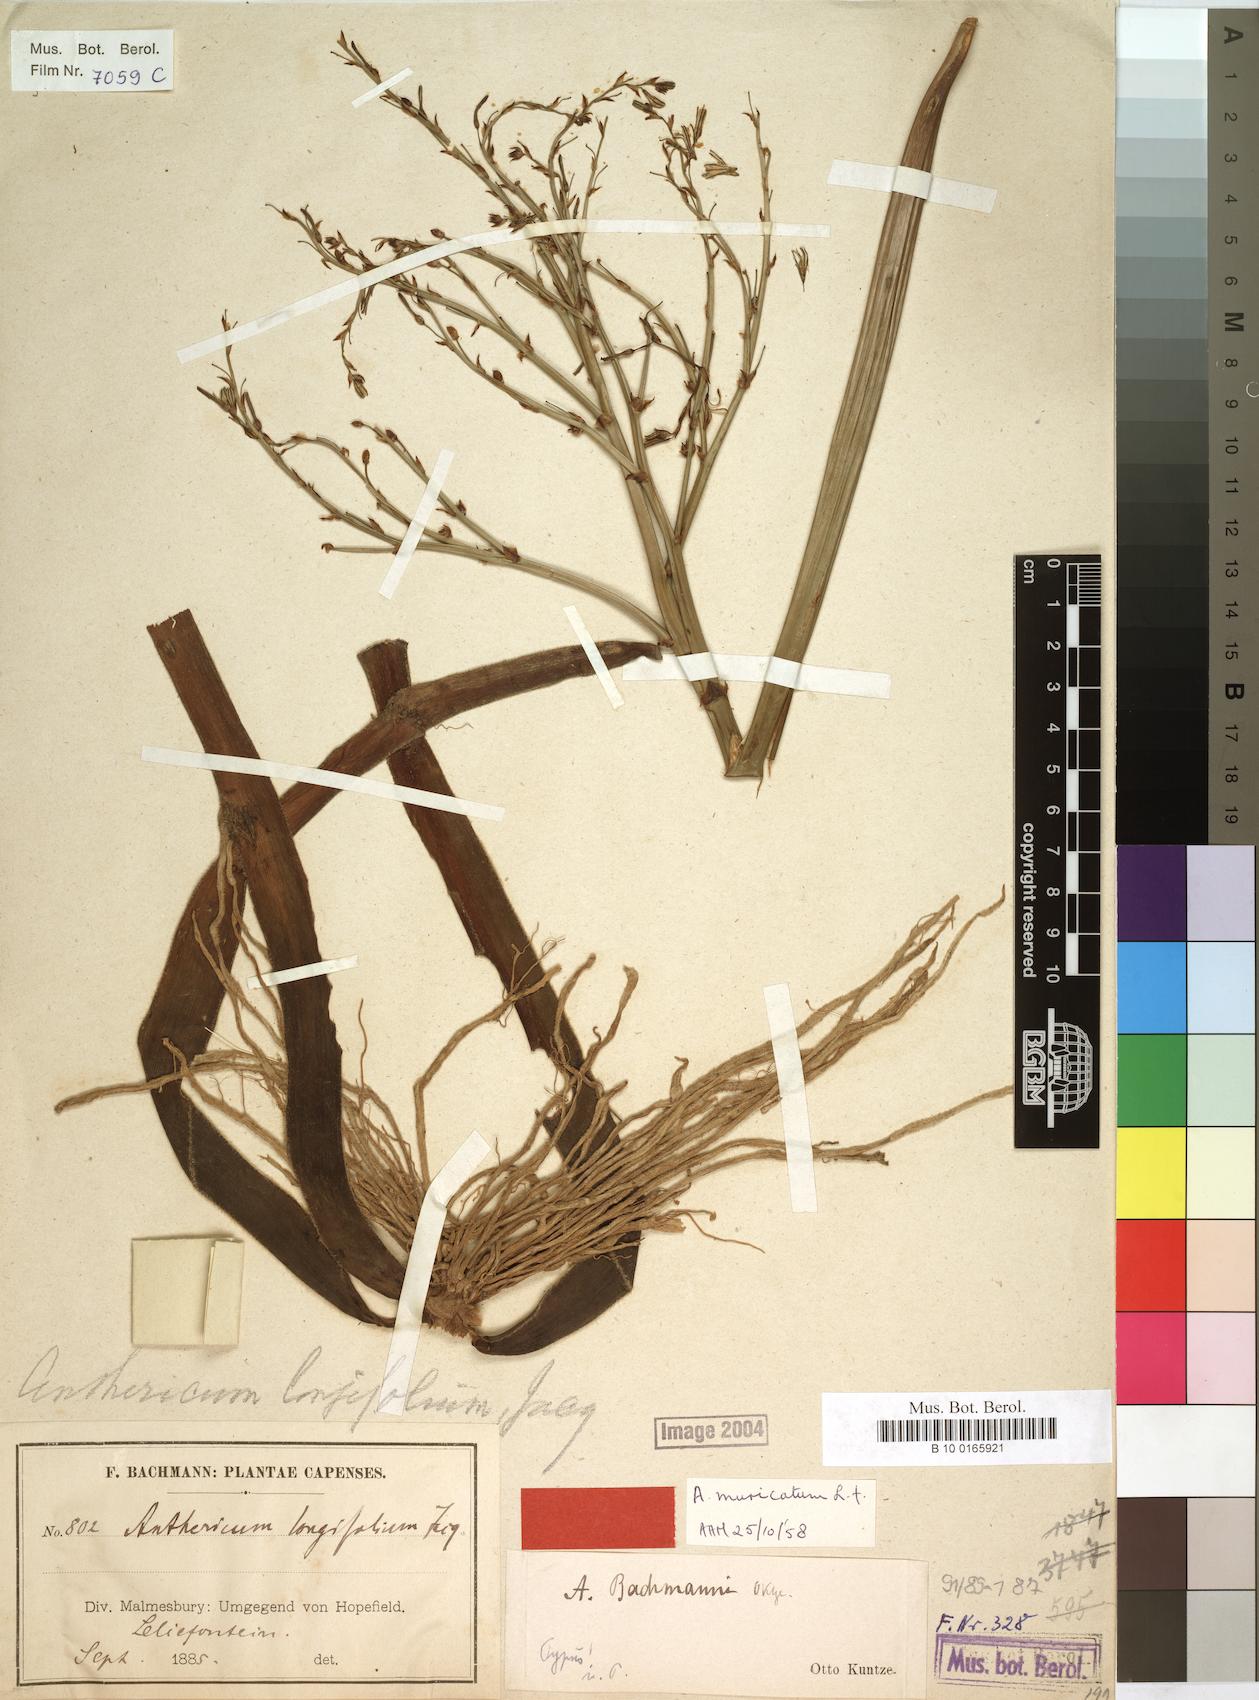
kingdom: Plantae
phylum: Tracheophyta
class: Liliopsida
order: Asparagales
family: Asphodelaceae
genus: Trachyandra
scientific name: Trachyandra muricata
